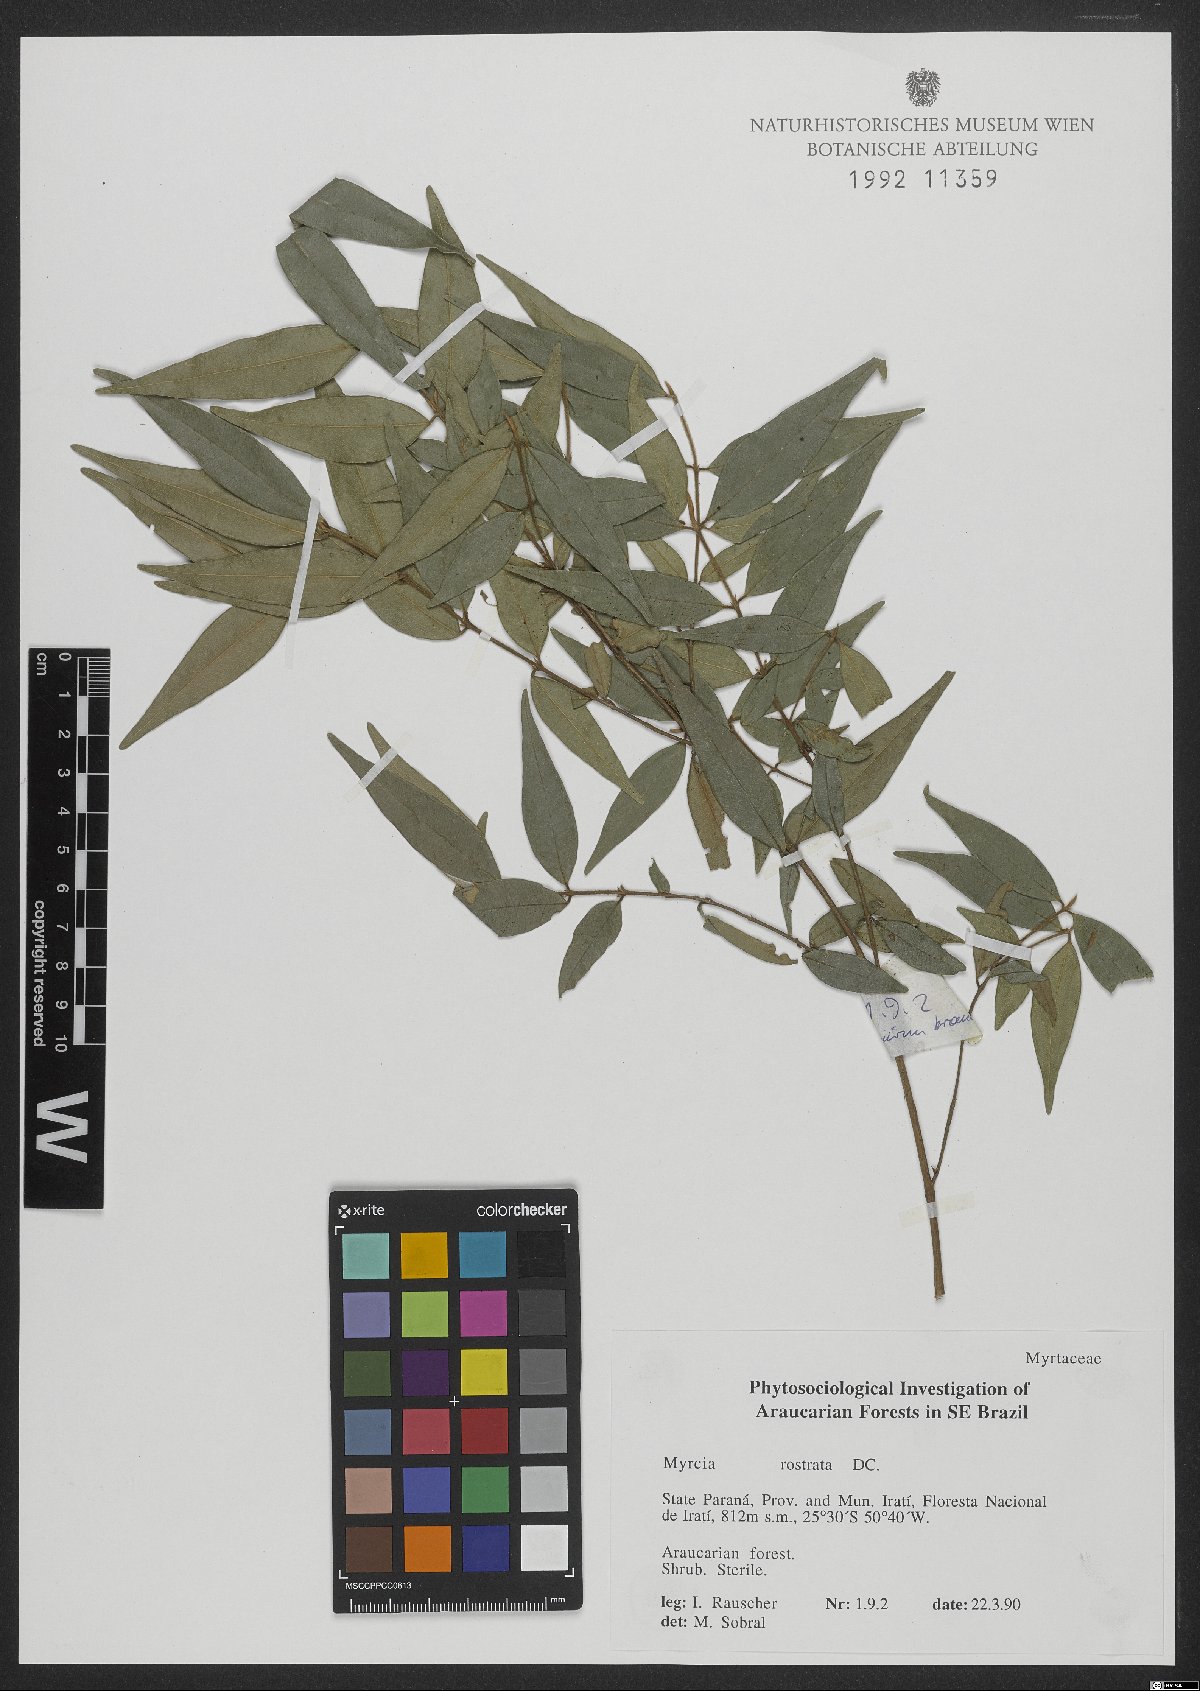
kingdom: Plantae
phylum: Tracheophyta
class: Magnoliopsida
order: Myrtales
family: Myrtaceae
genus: Myrcia
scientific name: Myrcia splendens
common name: Surinam cherry
